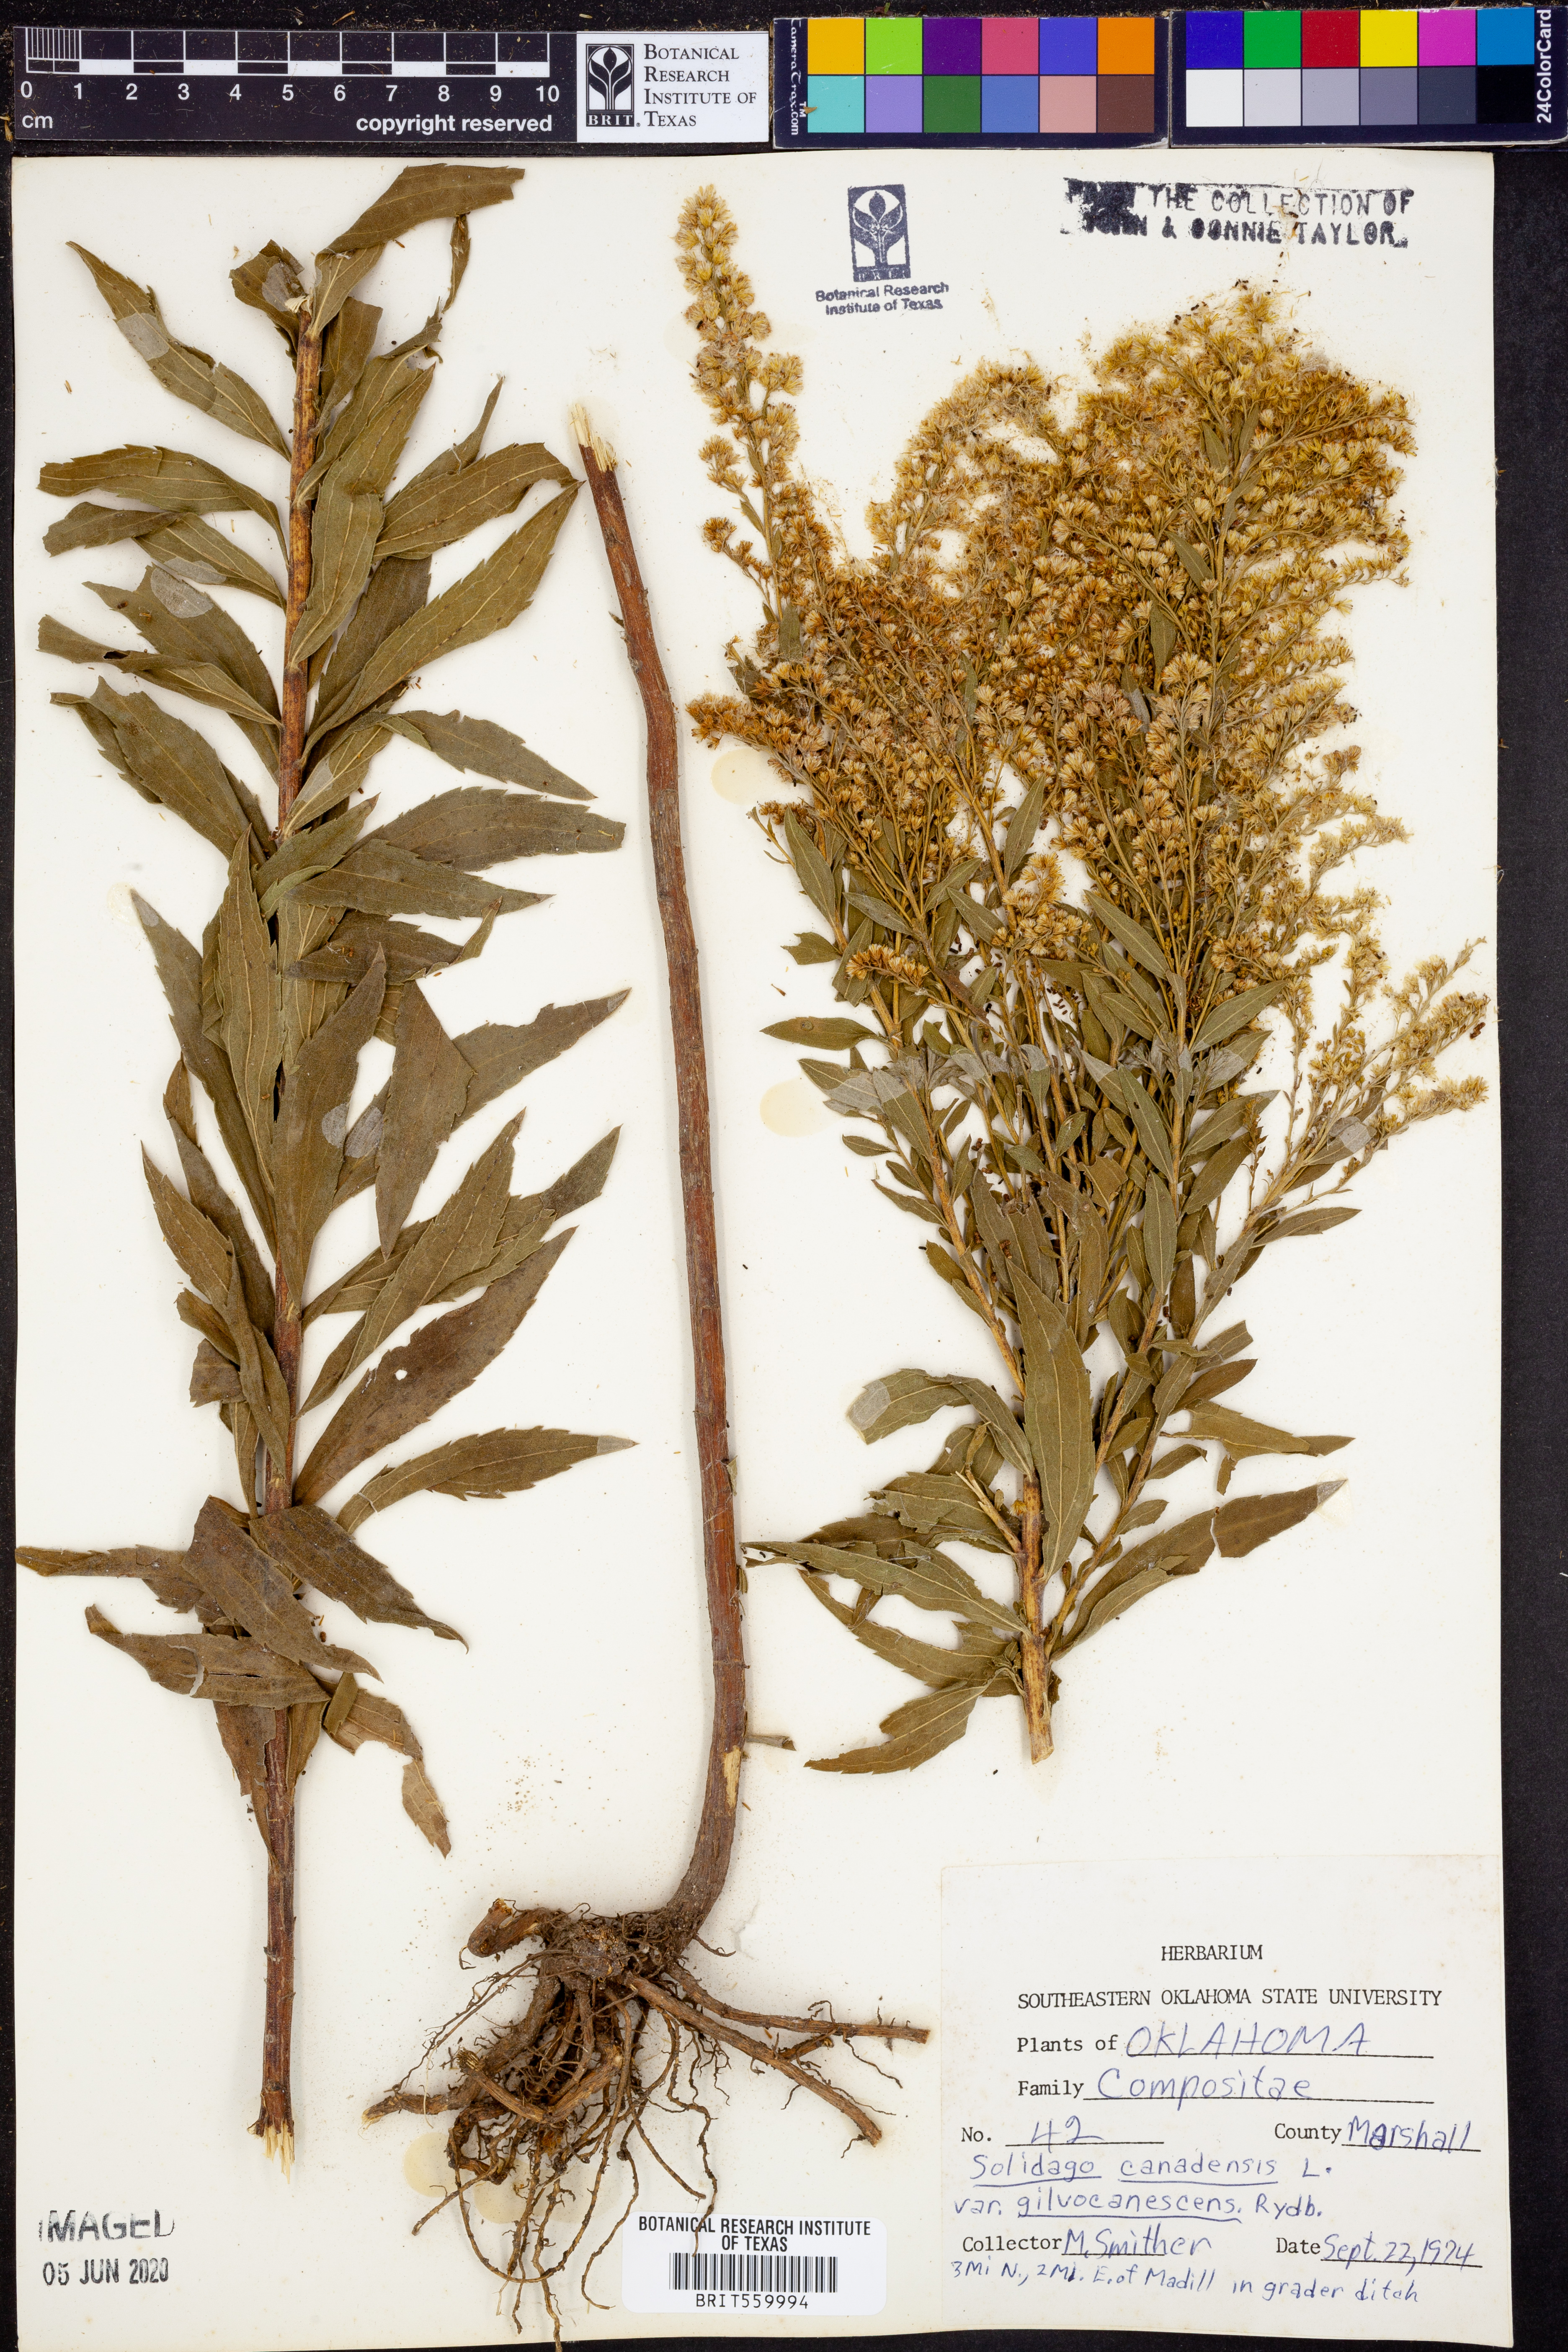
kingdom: Plantae
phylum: Tracheophyta
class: Magnoliopsida
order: Asterales
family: Asteraceae
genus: Solidago
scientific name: Solidago altissima
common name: Late goldenrod
